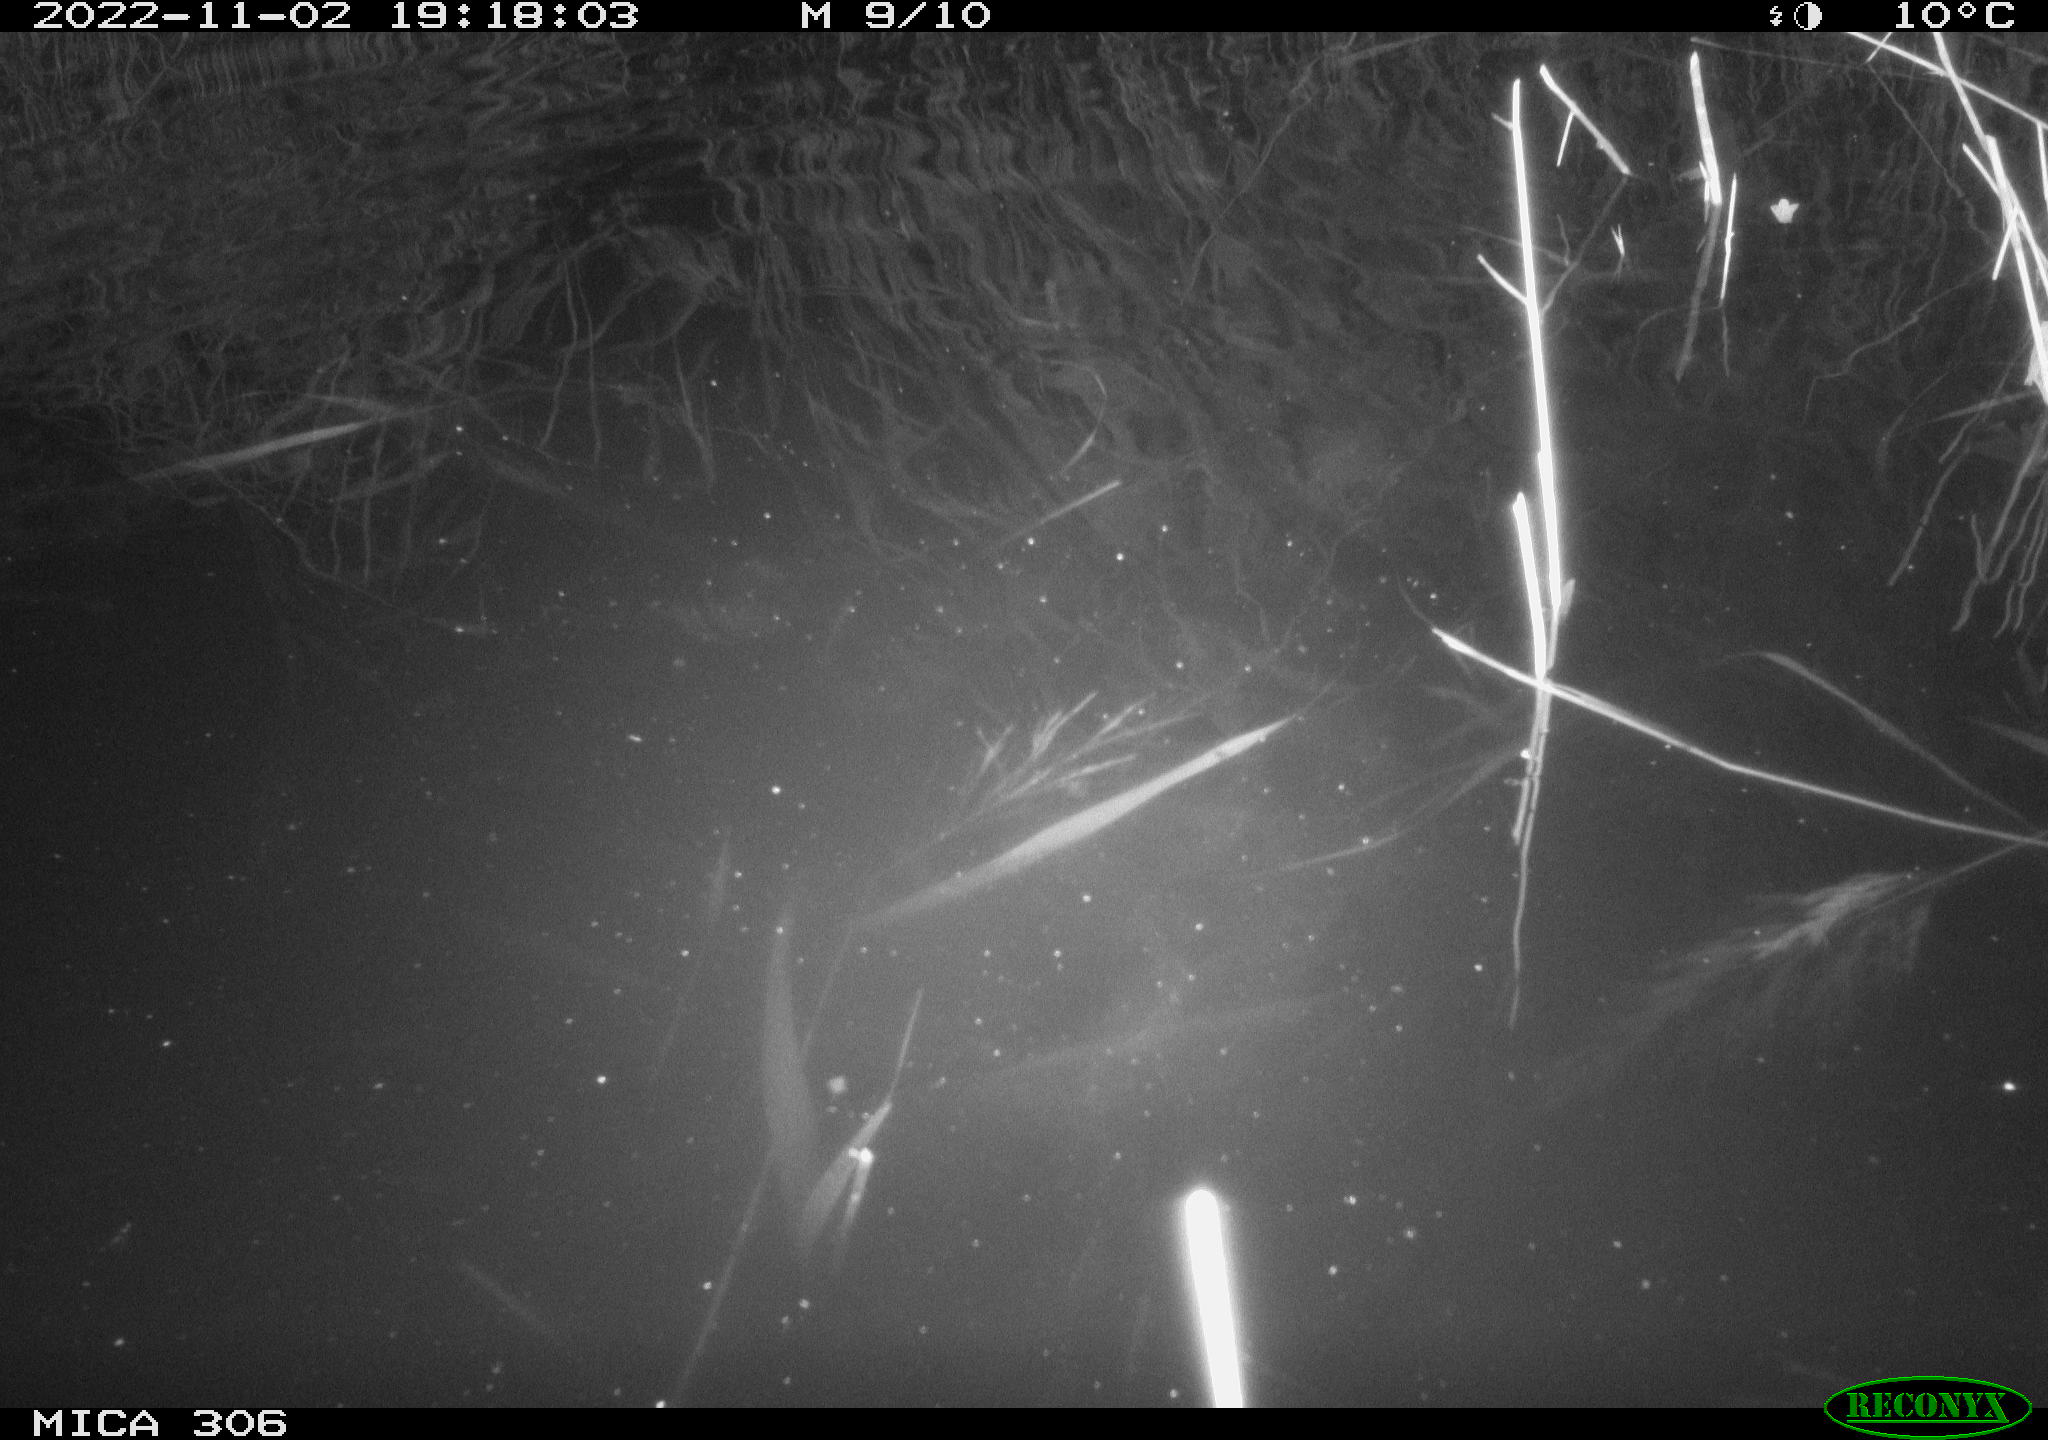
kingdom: Animalia
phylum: Chordata
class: Mammalia
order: Rodentia
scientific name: Rodentia
